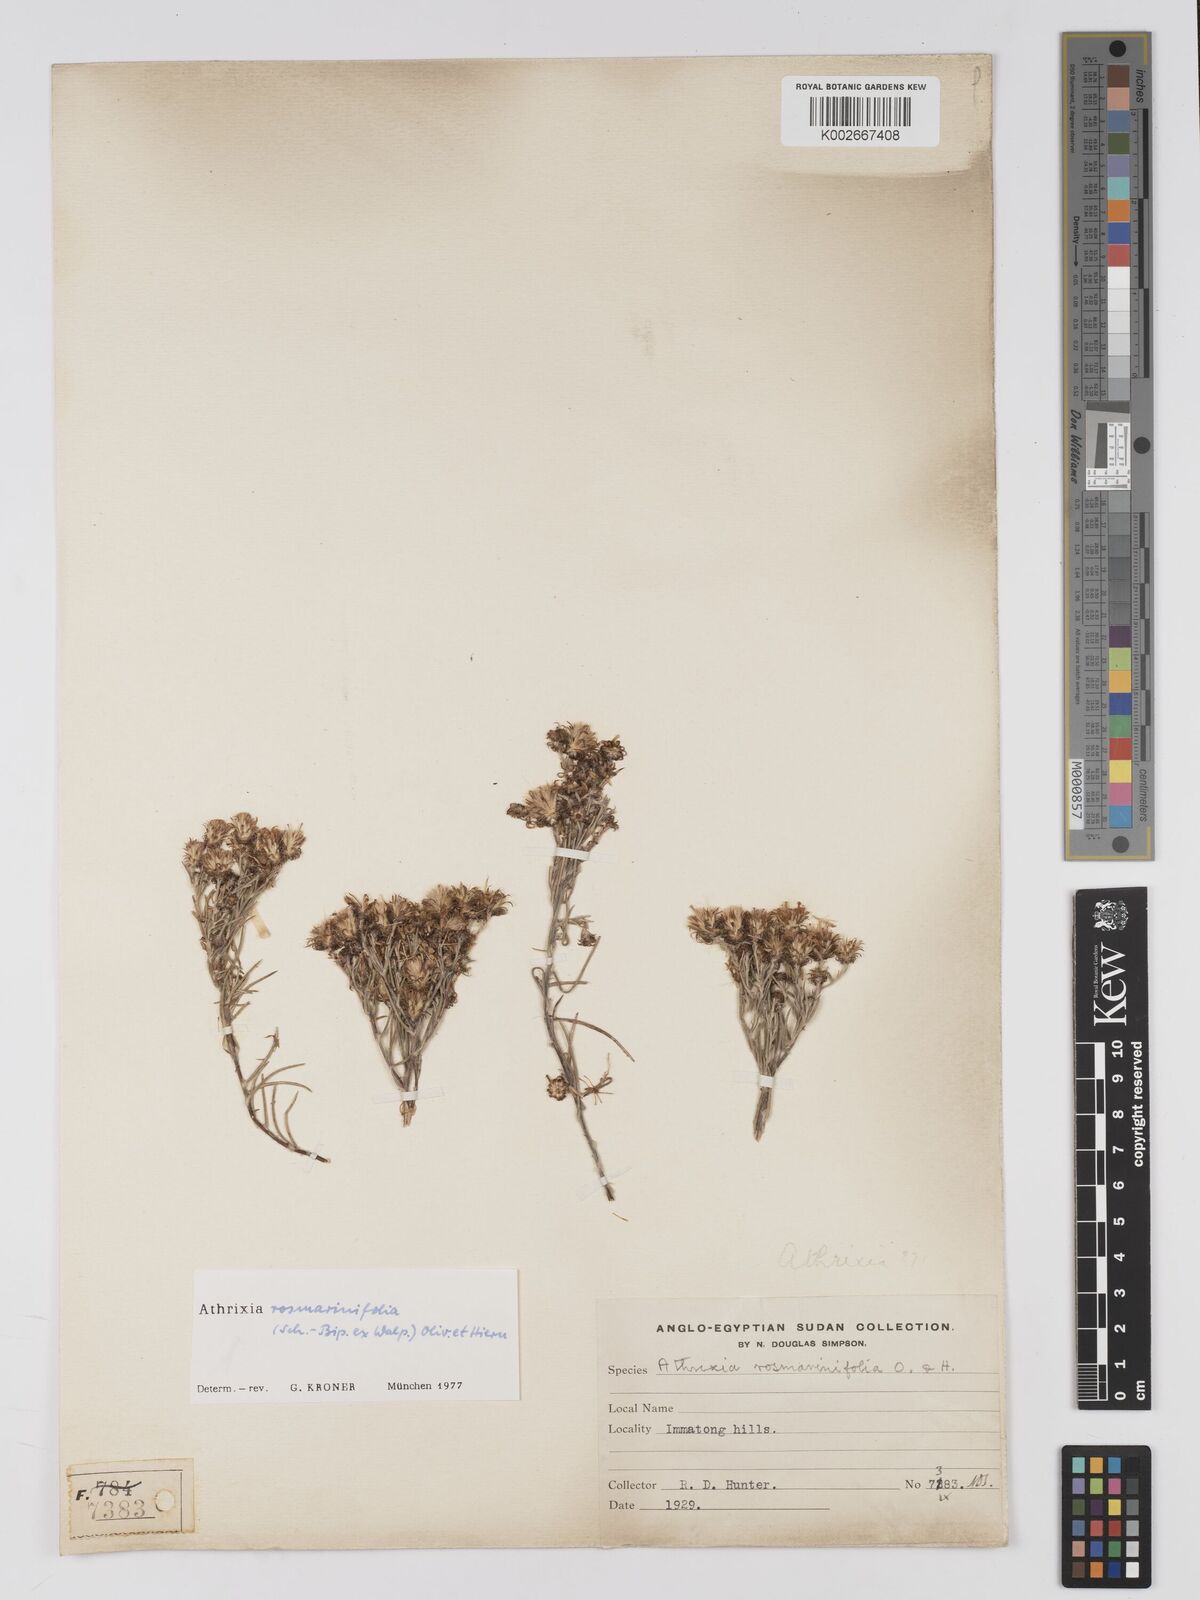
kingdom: Plantae
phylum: Tracheophyta
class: Magnoliopsida
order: Asterales
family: Asteraceae
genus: Athrixia
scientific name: Athrixia rosmarinifolia
